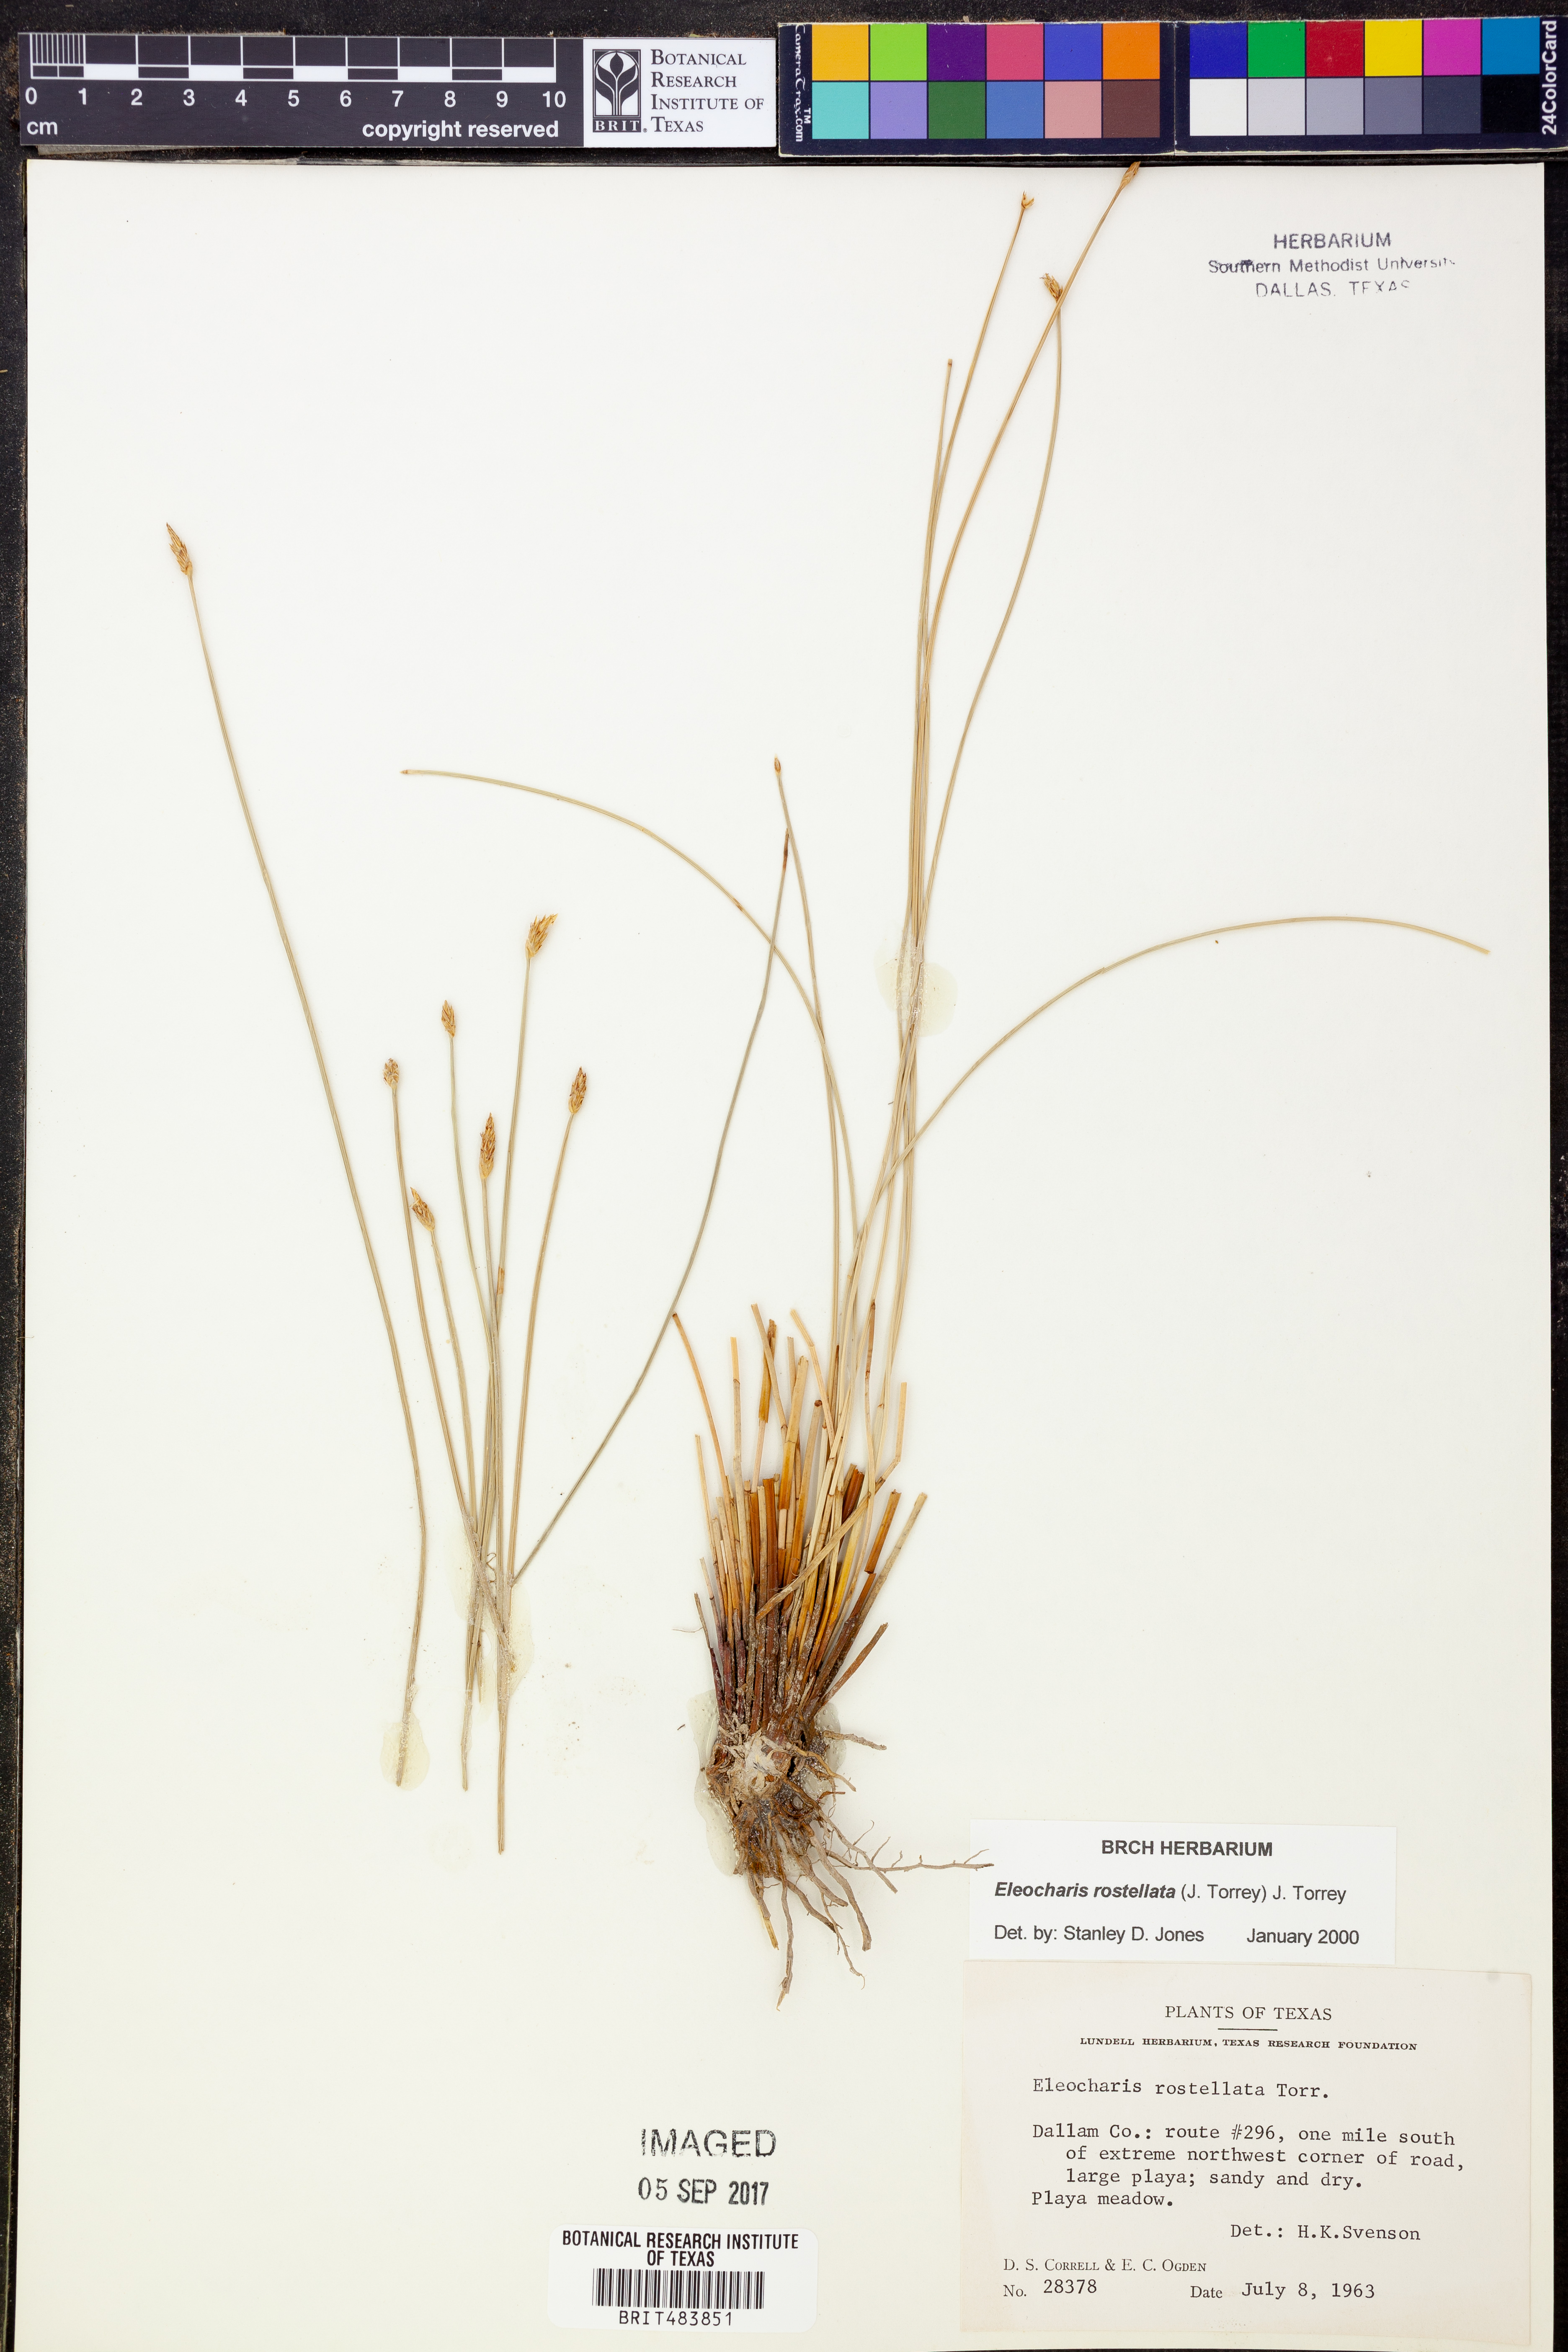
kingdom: Plantae
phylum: Tracheophyta
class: Liliopsida
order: Poales
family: Cyperaceae
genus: Eleocharis
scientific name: Eleocharis rostellata
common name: Walking sedge
